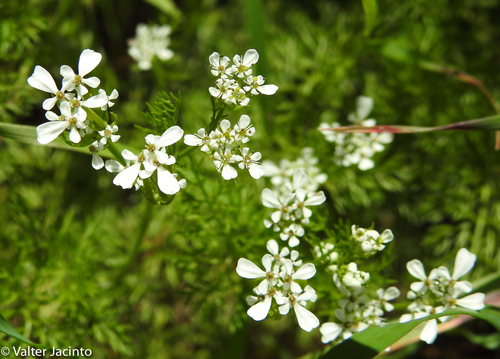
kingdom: Plantae
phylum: Tracheophyta
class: Magnoliopsida
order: Apiales
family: Apiaceae
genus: Scandix
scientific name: Scandix pecten-veneris
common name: Shepherd's-needle
